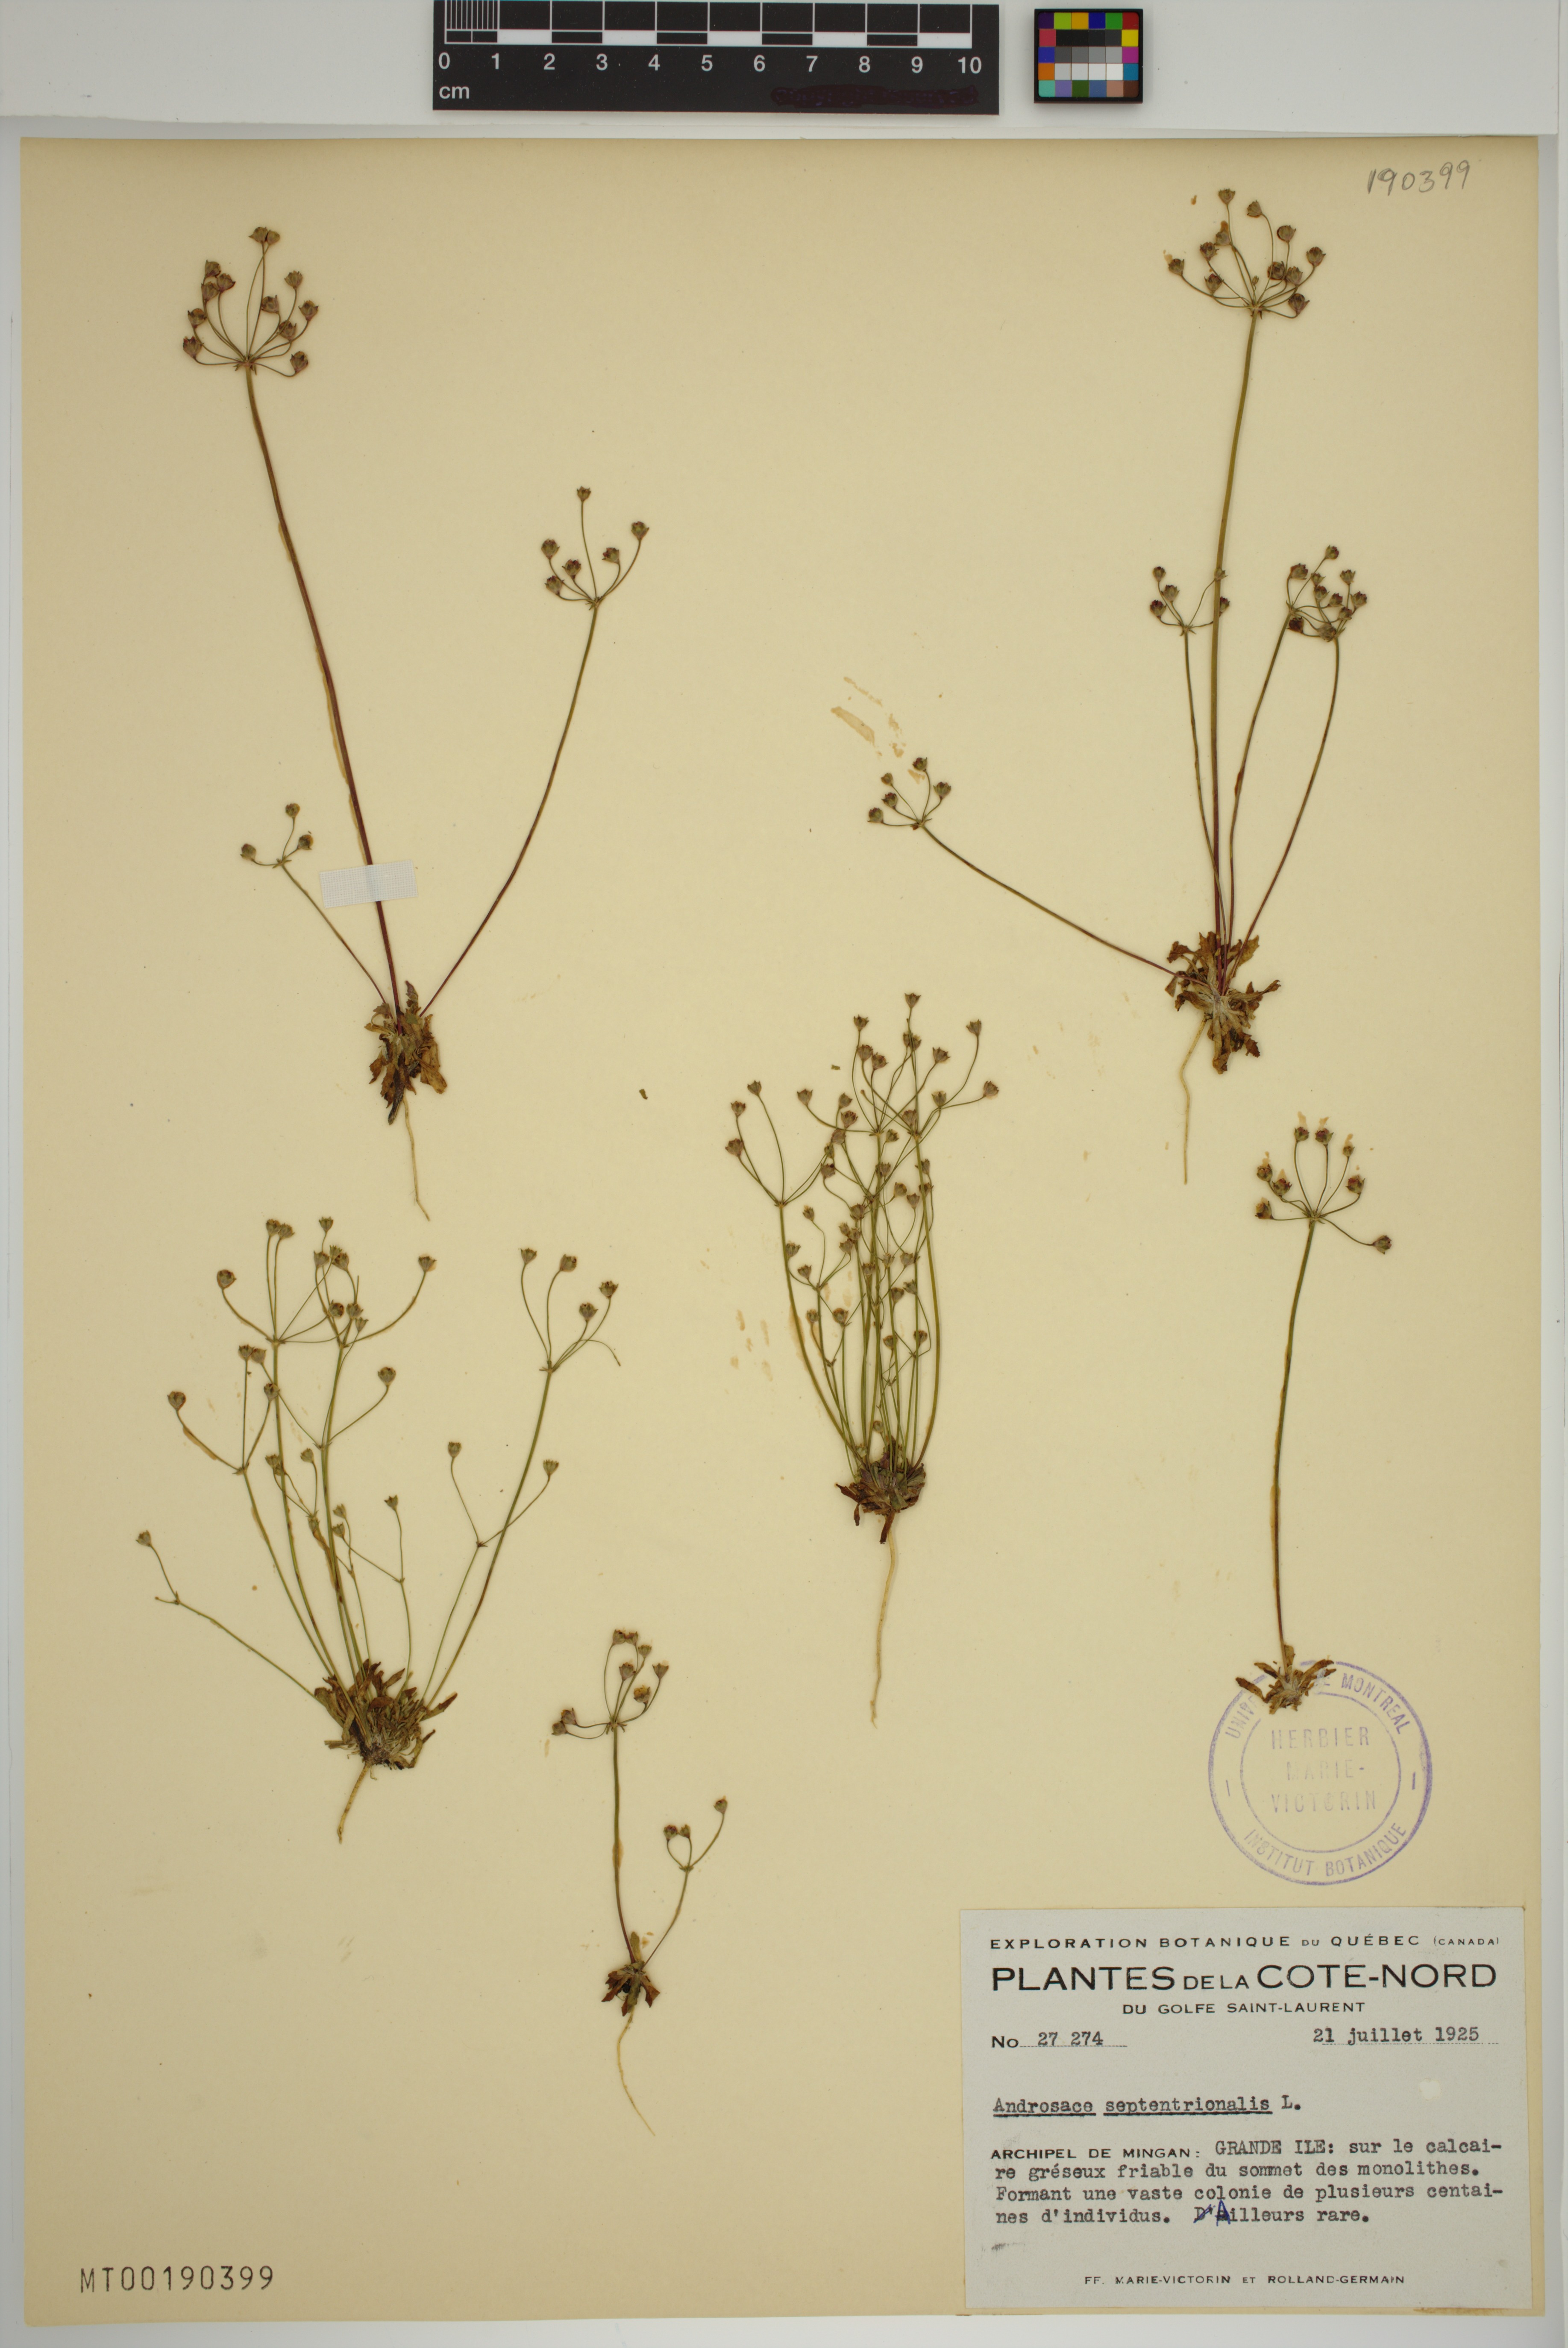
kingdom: Plantae
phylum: Tracheophyta
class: Magnoliopsida
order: Ericales
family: Primulaceae
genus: Androsace
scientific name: Androsace septentrionalis
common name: Hairy northern fairy-candelabra
